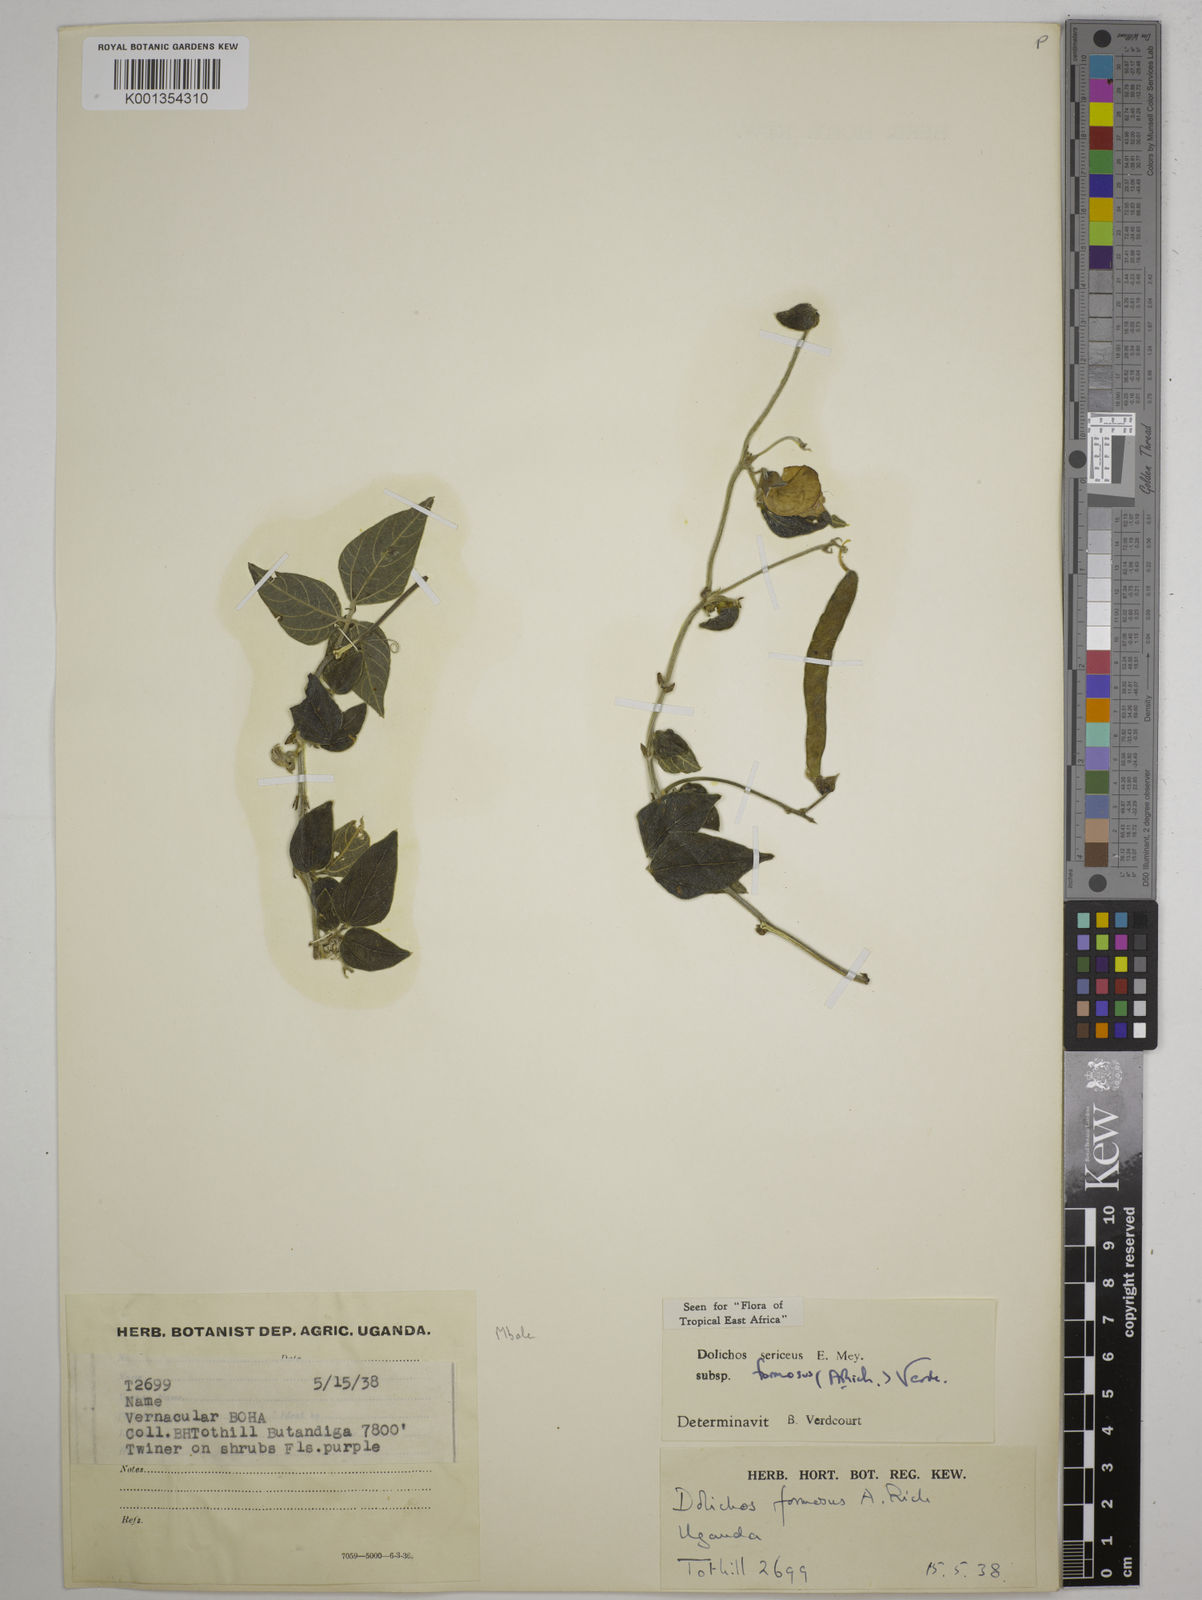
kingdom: Plantae
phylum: Tracheophyta
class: Magnoliopsida
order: Fabales
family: Fabaceae
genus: Dolichos
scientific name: Dolichos
